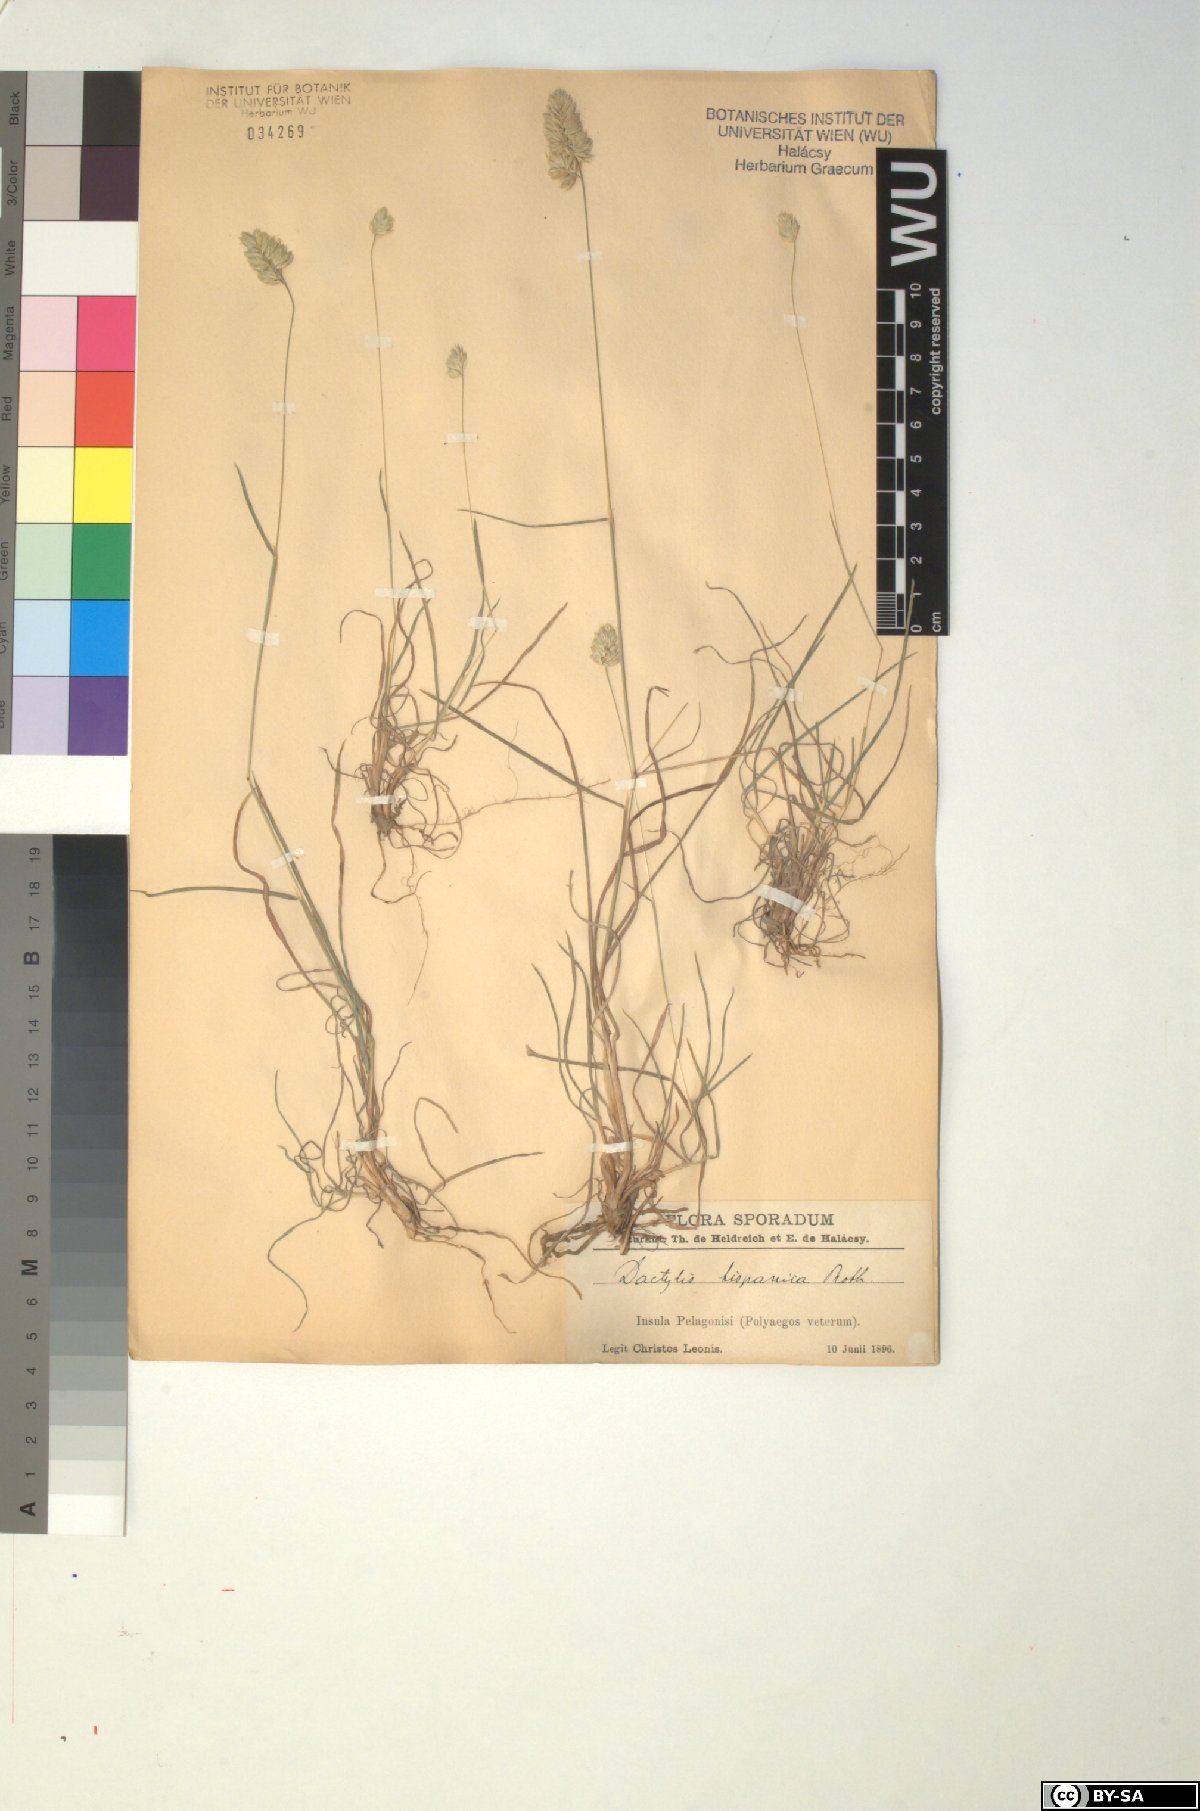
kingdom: Plantae
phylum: Tracheophyta
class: Liliopsida
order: Poales
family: Poaceae
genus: Dactylis
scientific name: Dactylis glomerata
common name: Orchardgrass
